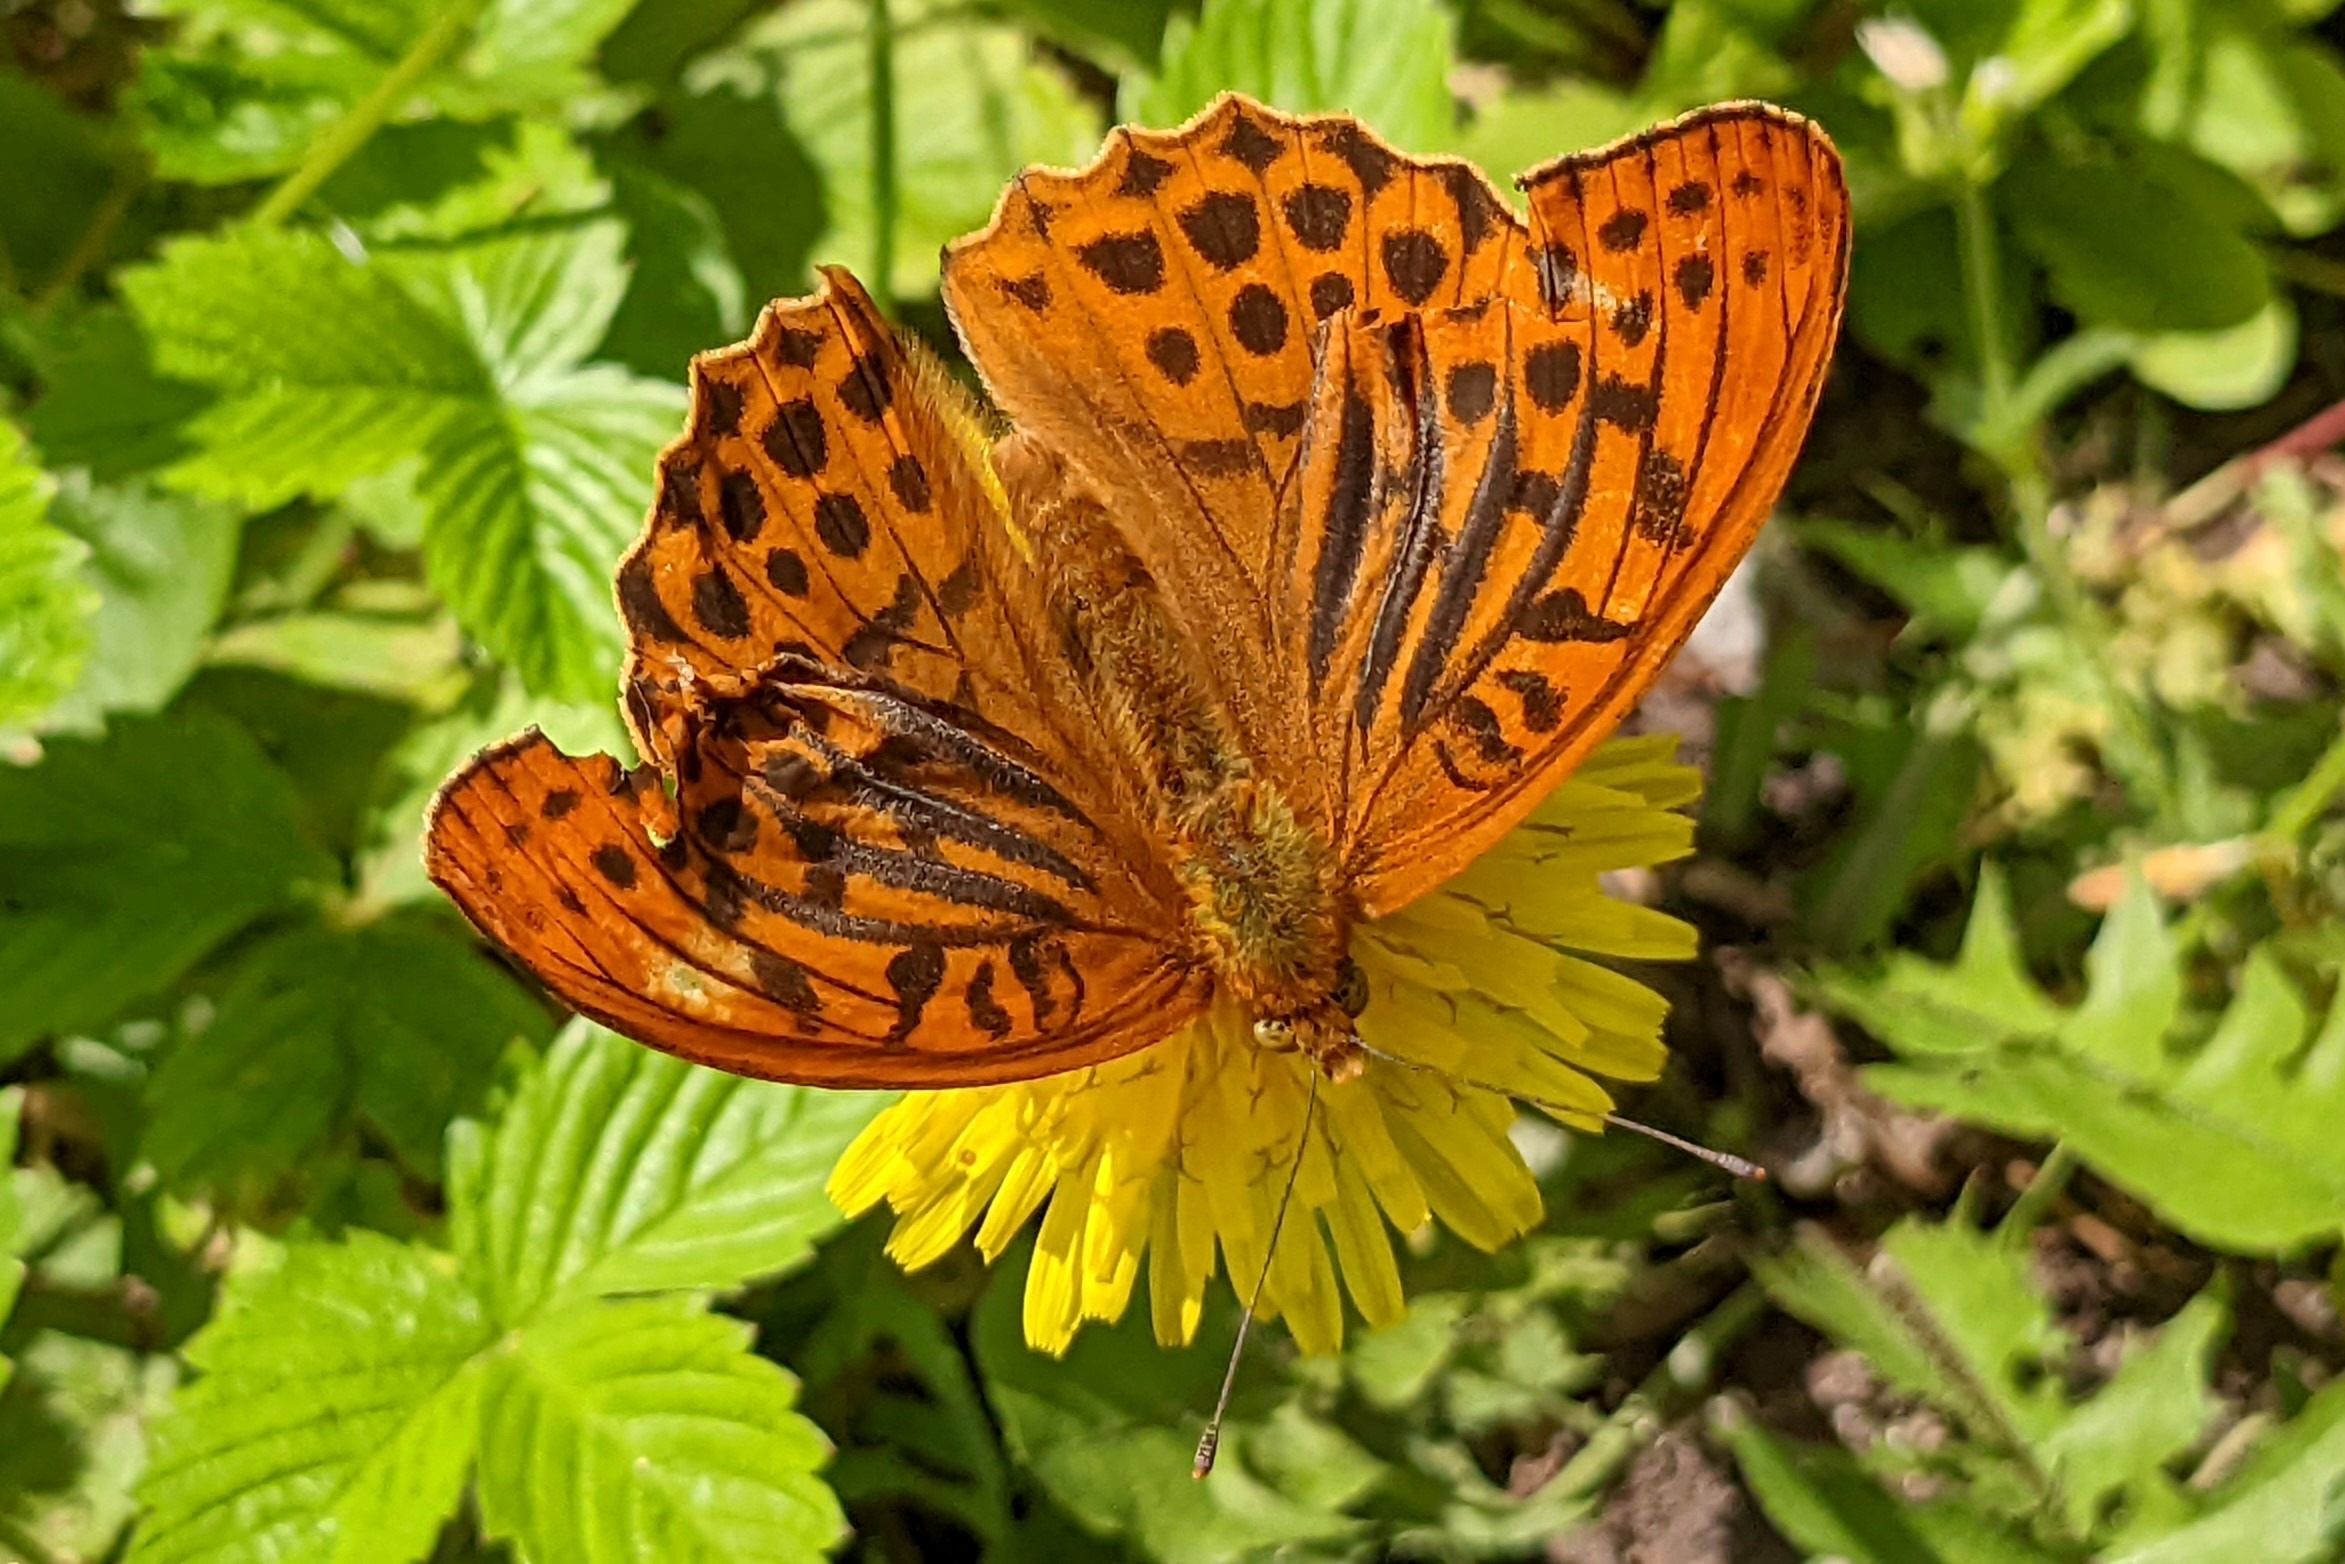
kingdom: Animalia
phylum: Arthropoda
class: Insecta
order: Lepidoptera
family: Nymphalidae
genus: Argynnis
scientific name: Argynnis paphia
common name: Kejserkåbe
